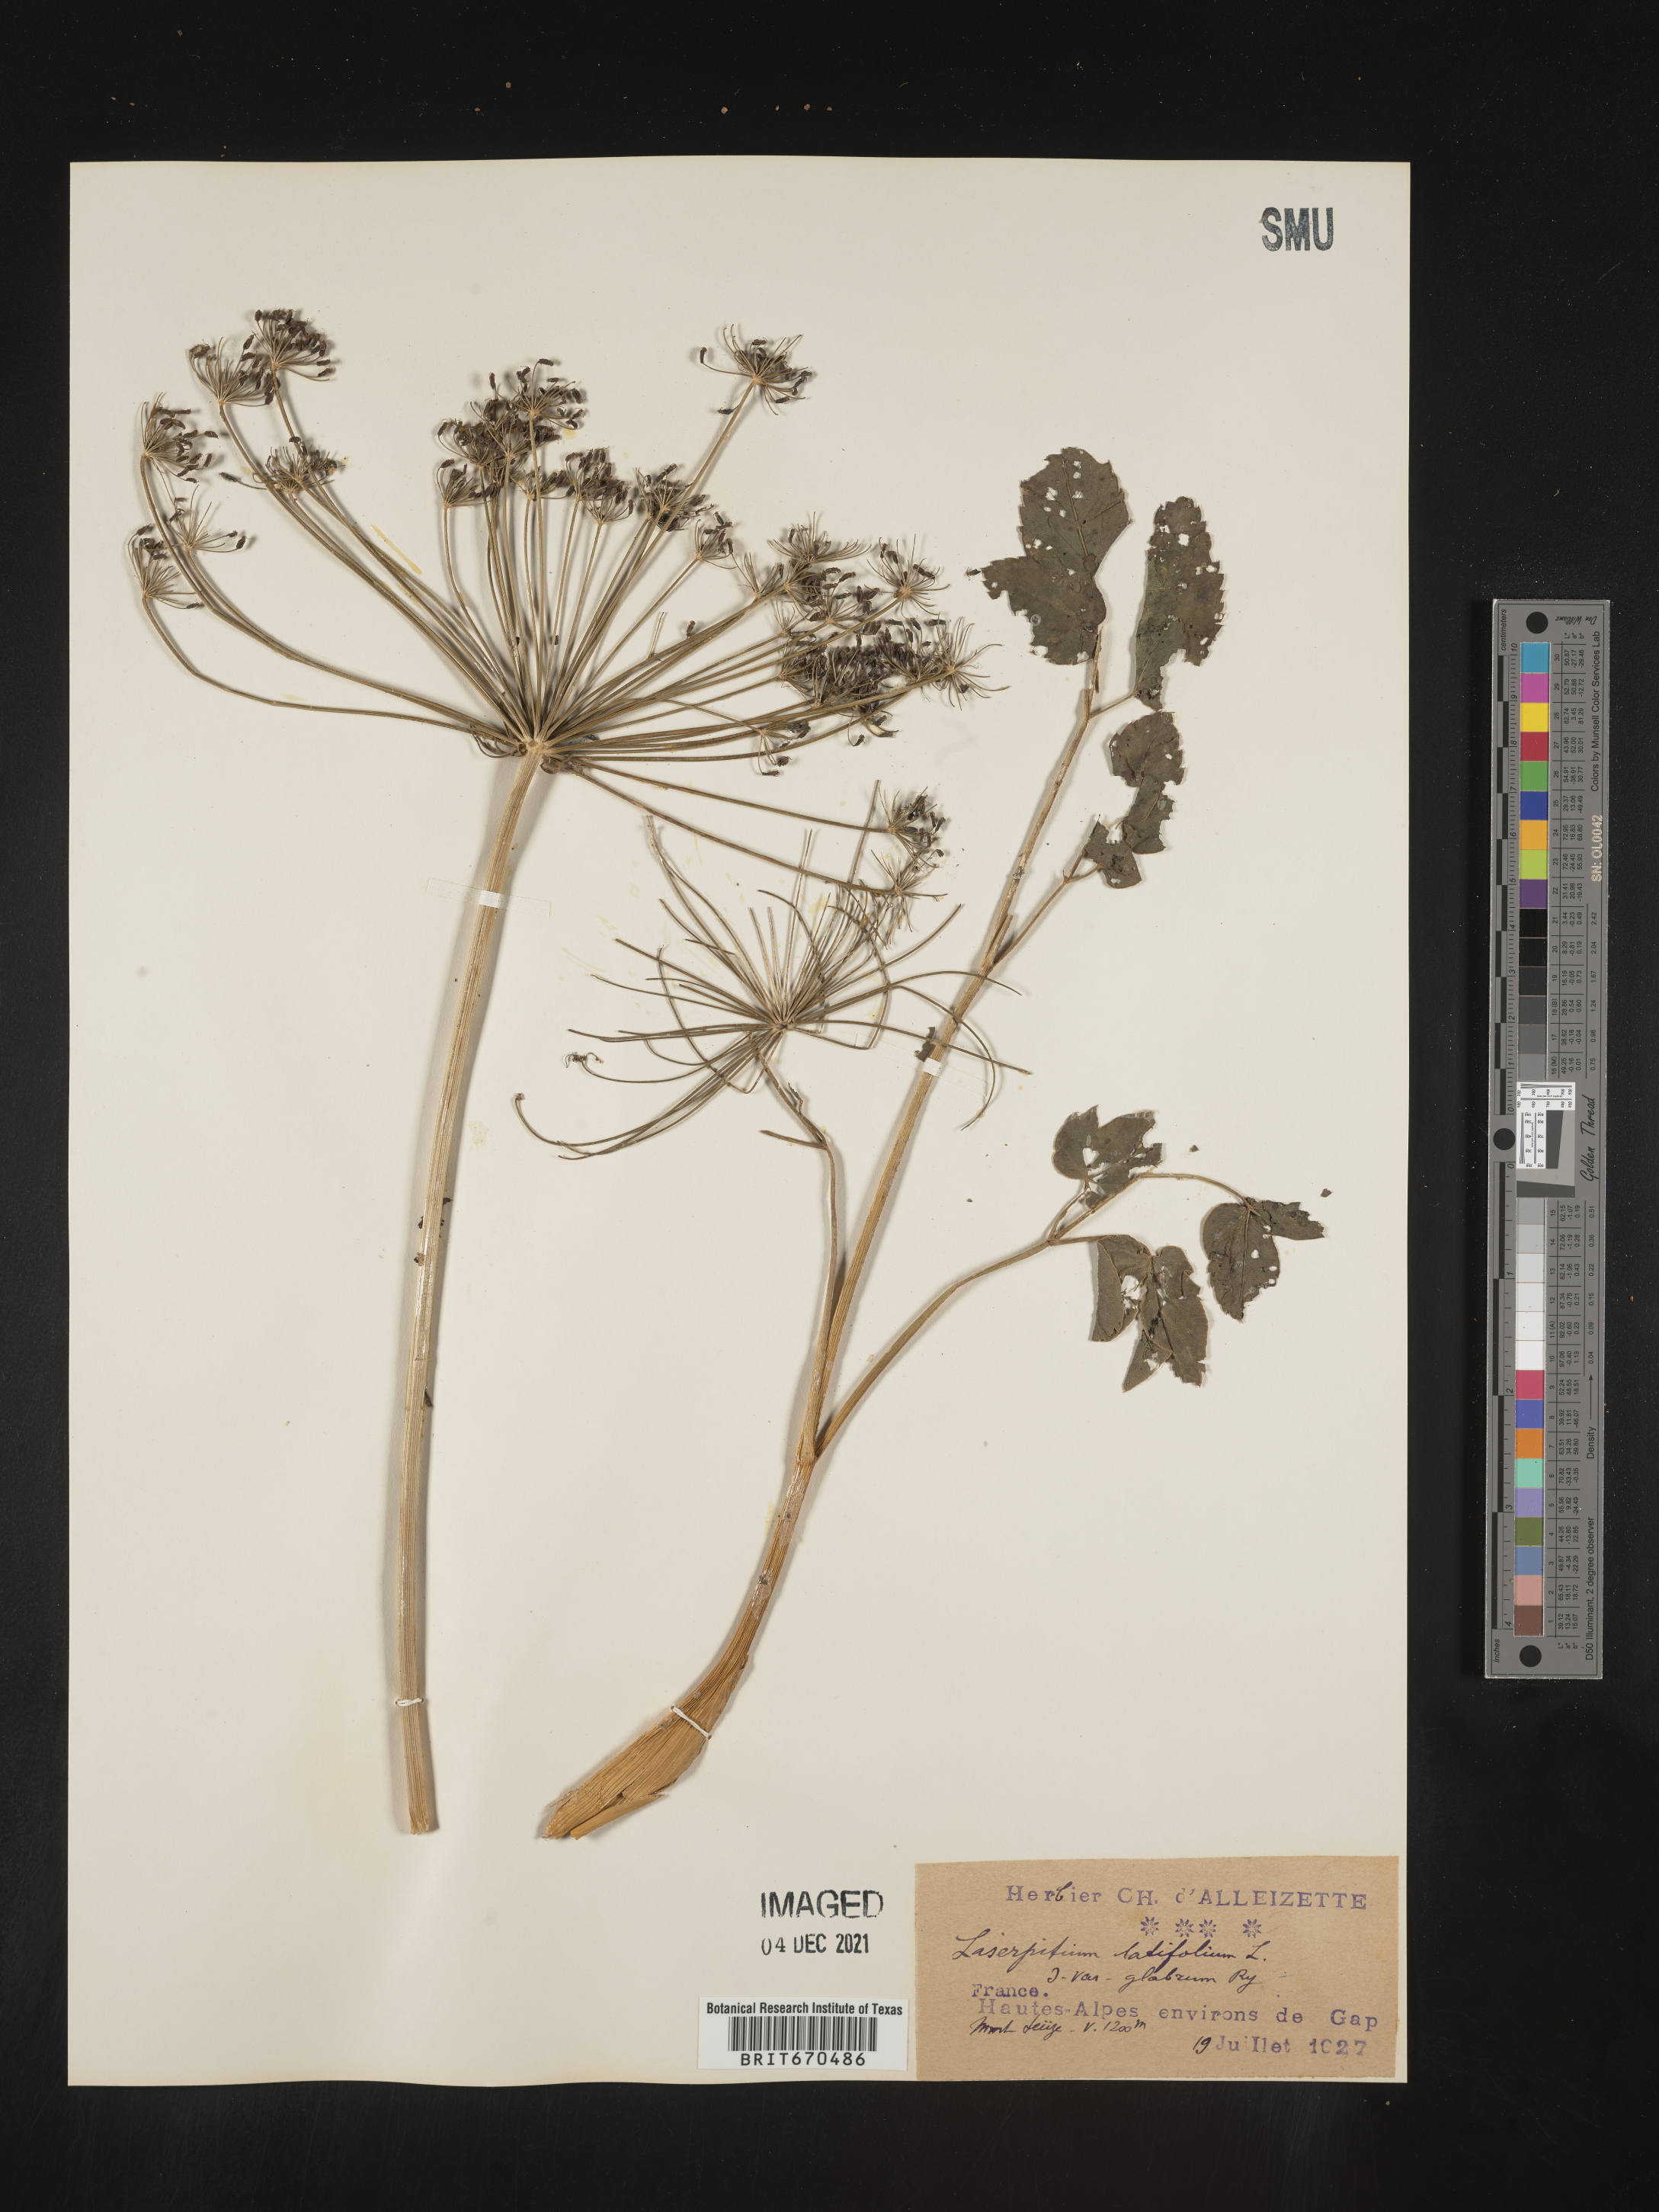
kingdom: Plantae
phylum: Tracheophyta
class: Magnoliopsida
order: Apiales
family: Apiaceae
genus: Laserpitium
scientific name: Laserpitium
